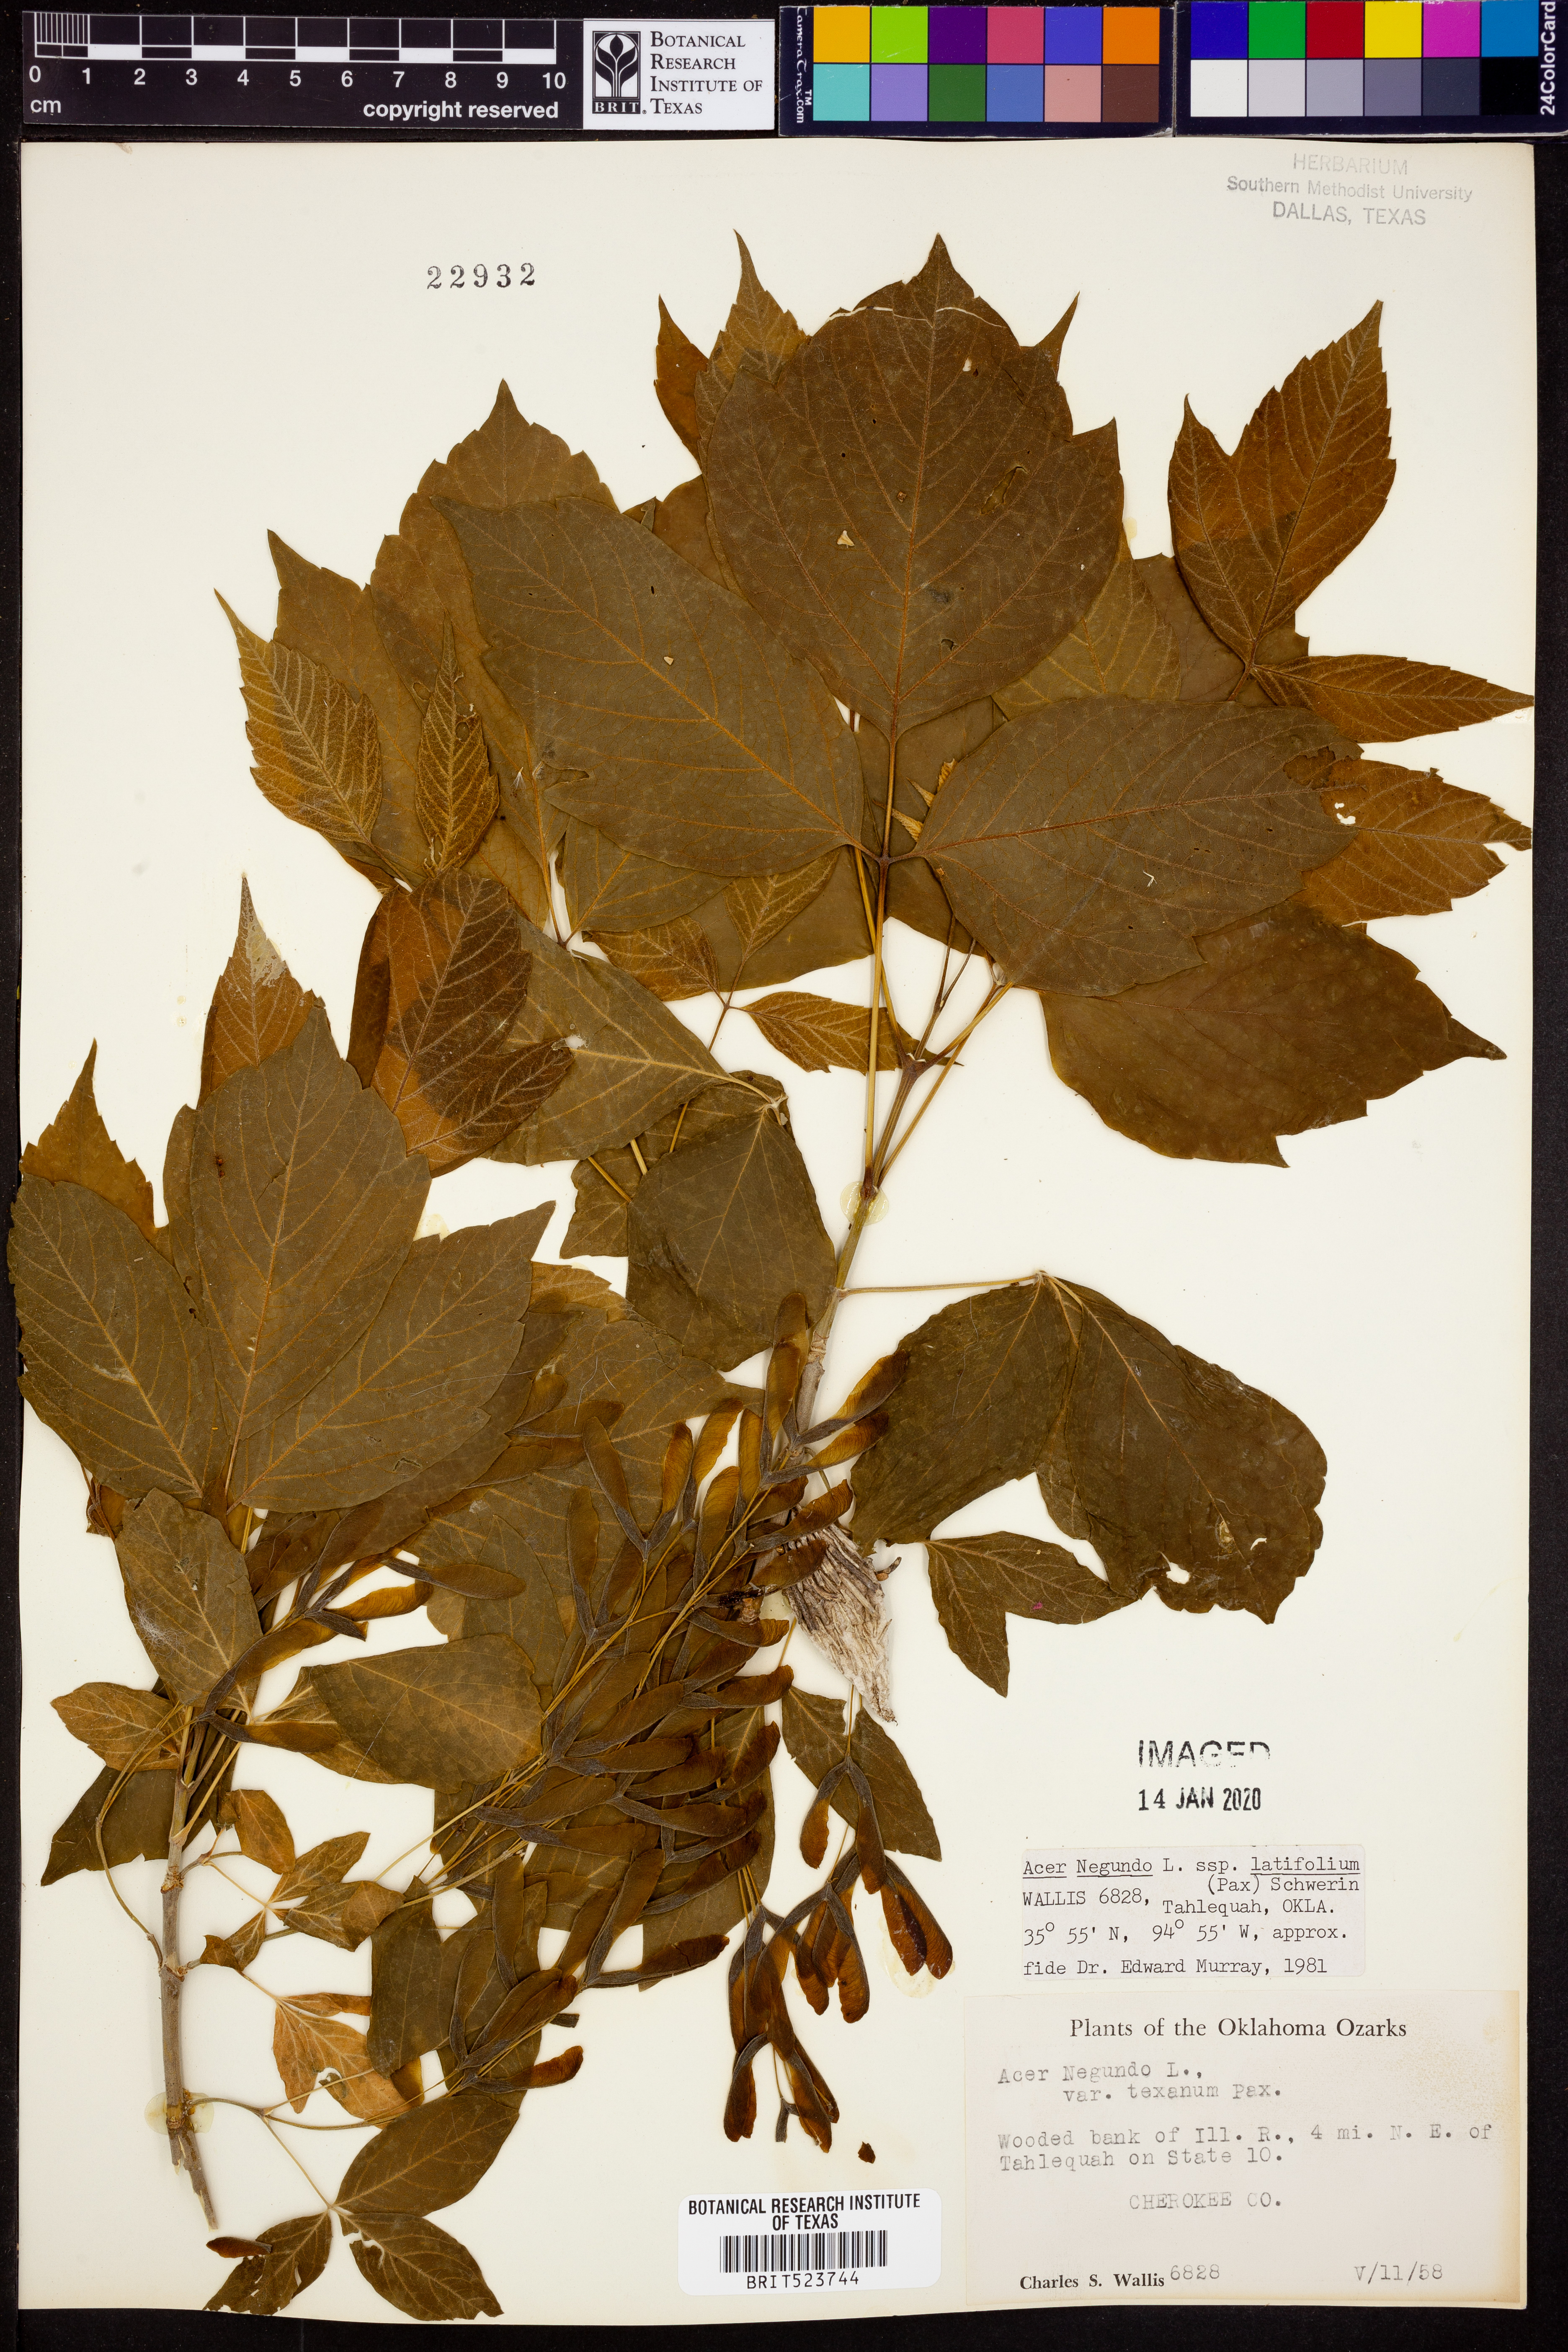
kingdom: Plantae
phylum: Tracheophyta
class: Magnoliopsida
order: Sapindales
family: Sapindaceae
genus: Acer
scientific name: Acer negundo
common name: Ashleaf maple
